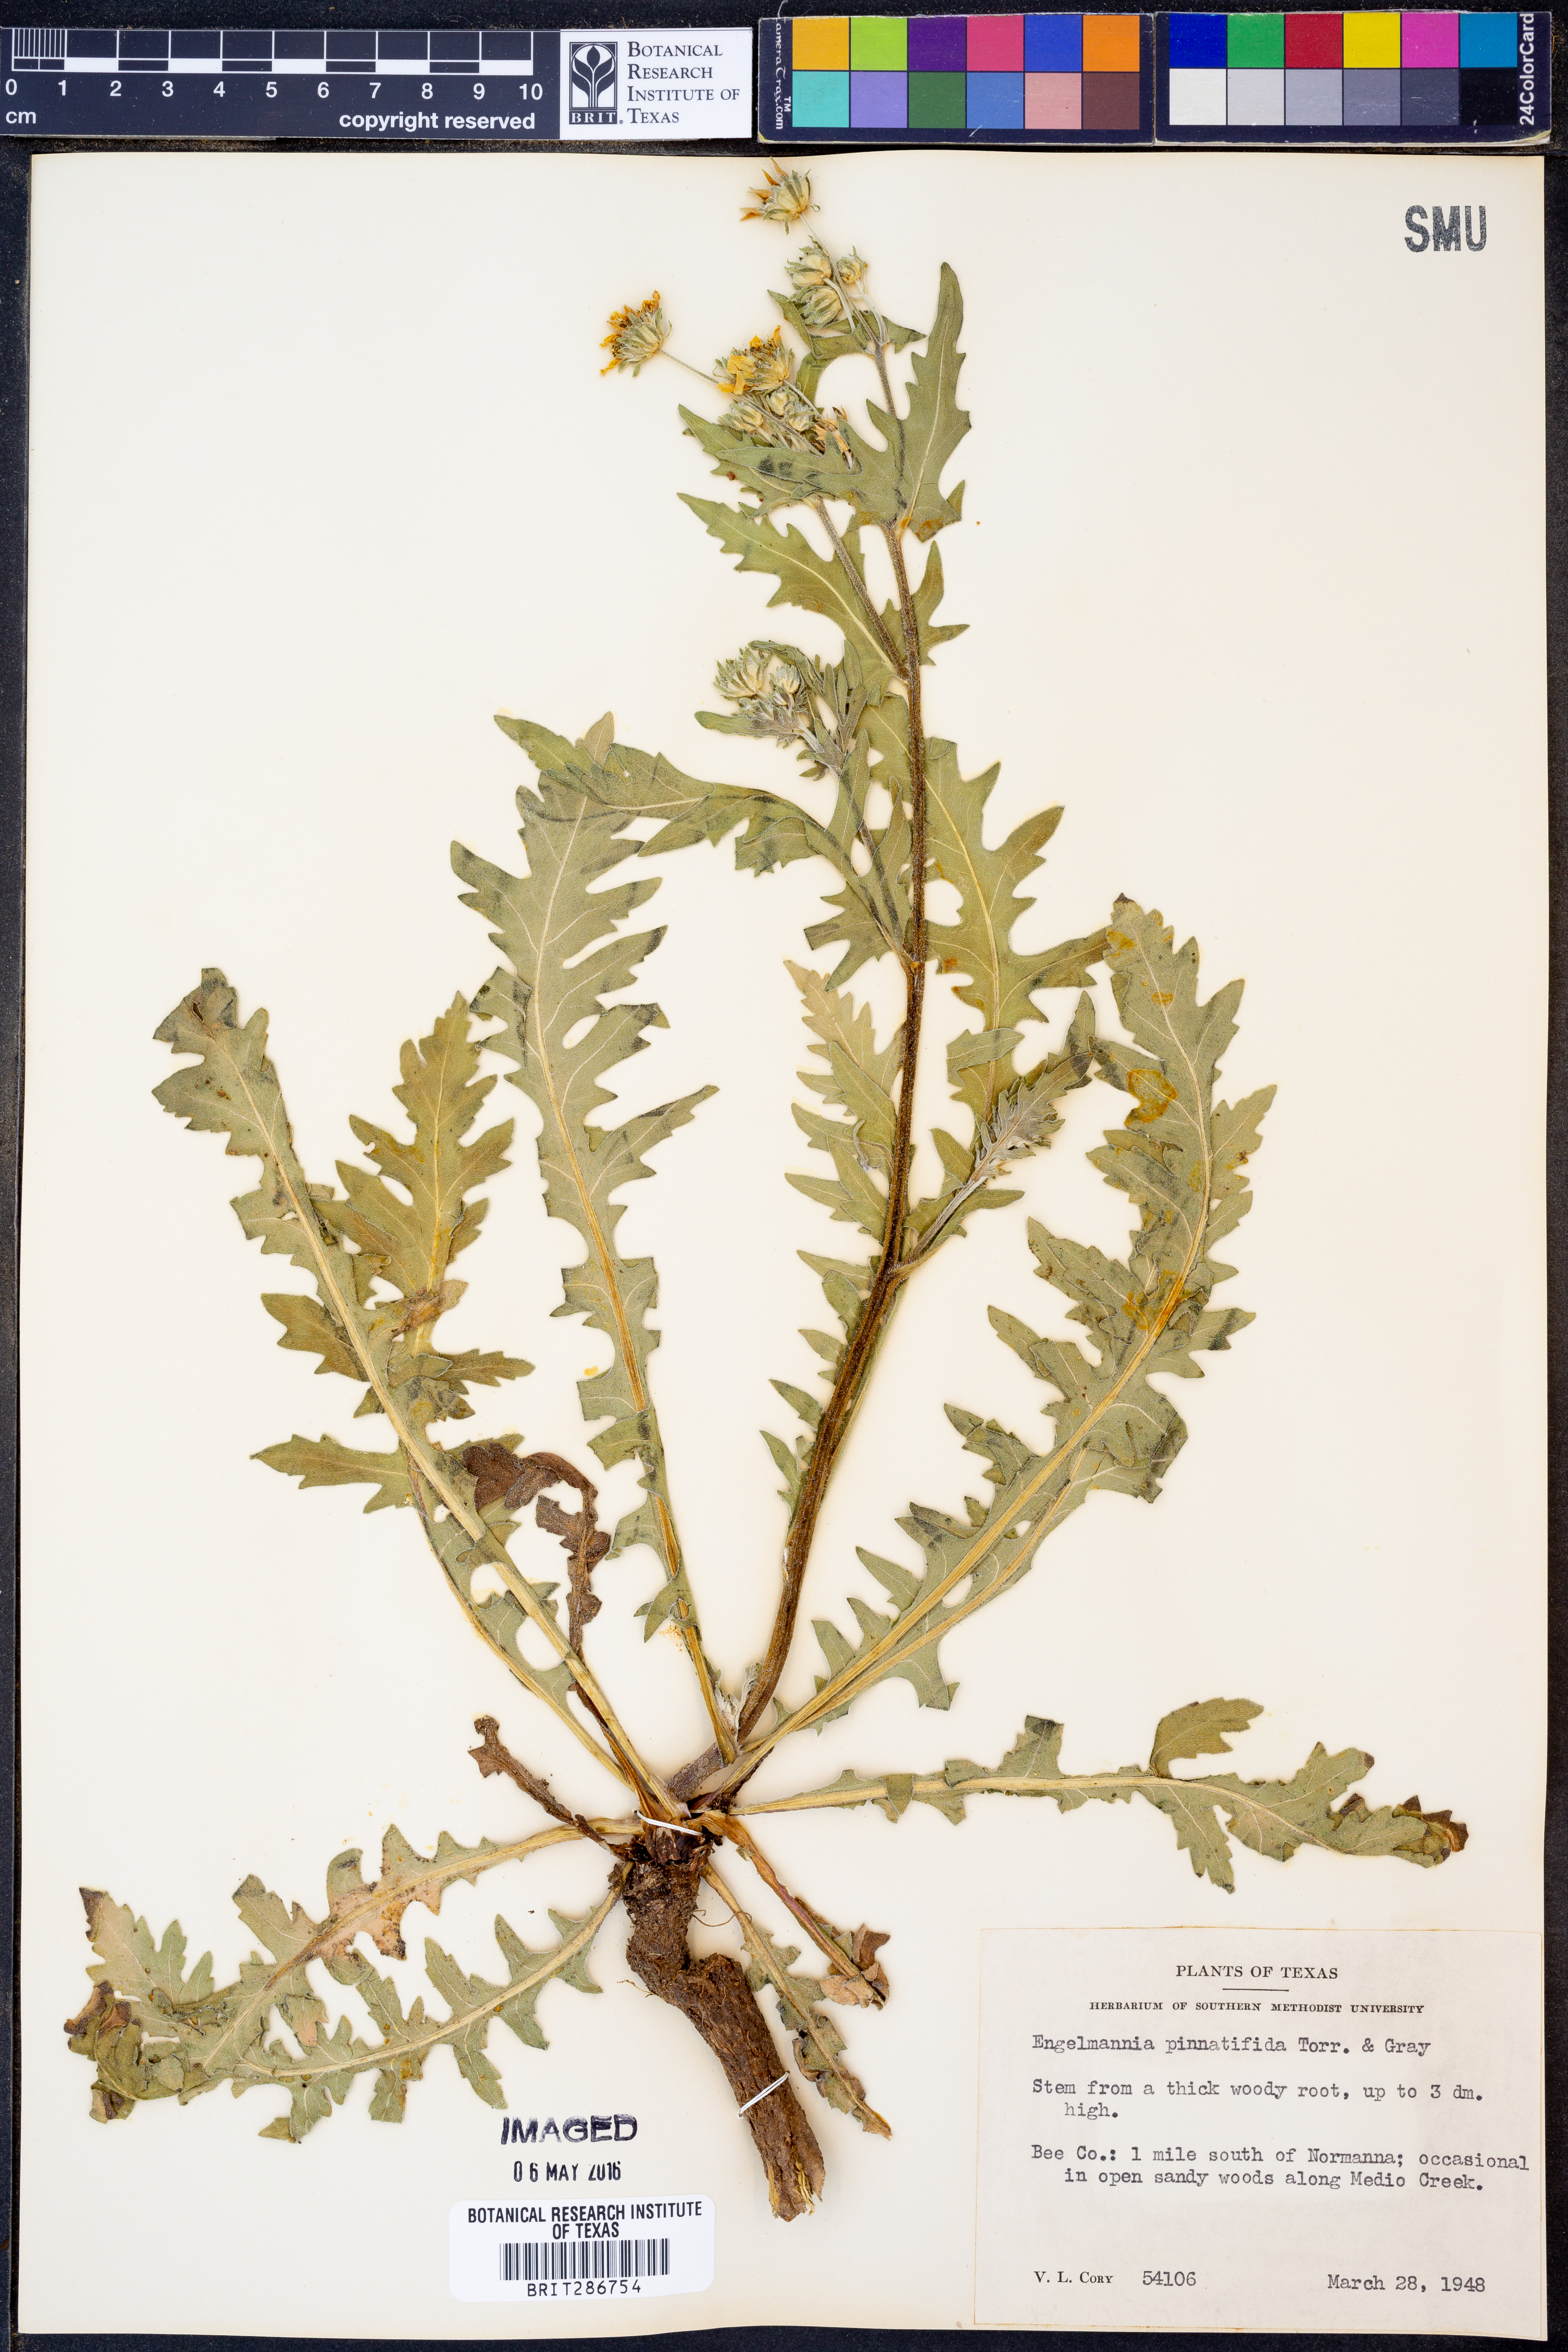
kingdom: Plantae
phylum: Tracheophyta
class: Magnoliopsida
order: Asterales
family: Asteraceae
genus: Engelmannia
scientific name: Engelmannia peristenia
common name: Engelmann's daisy
